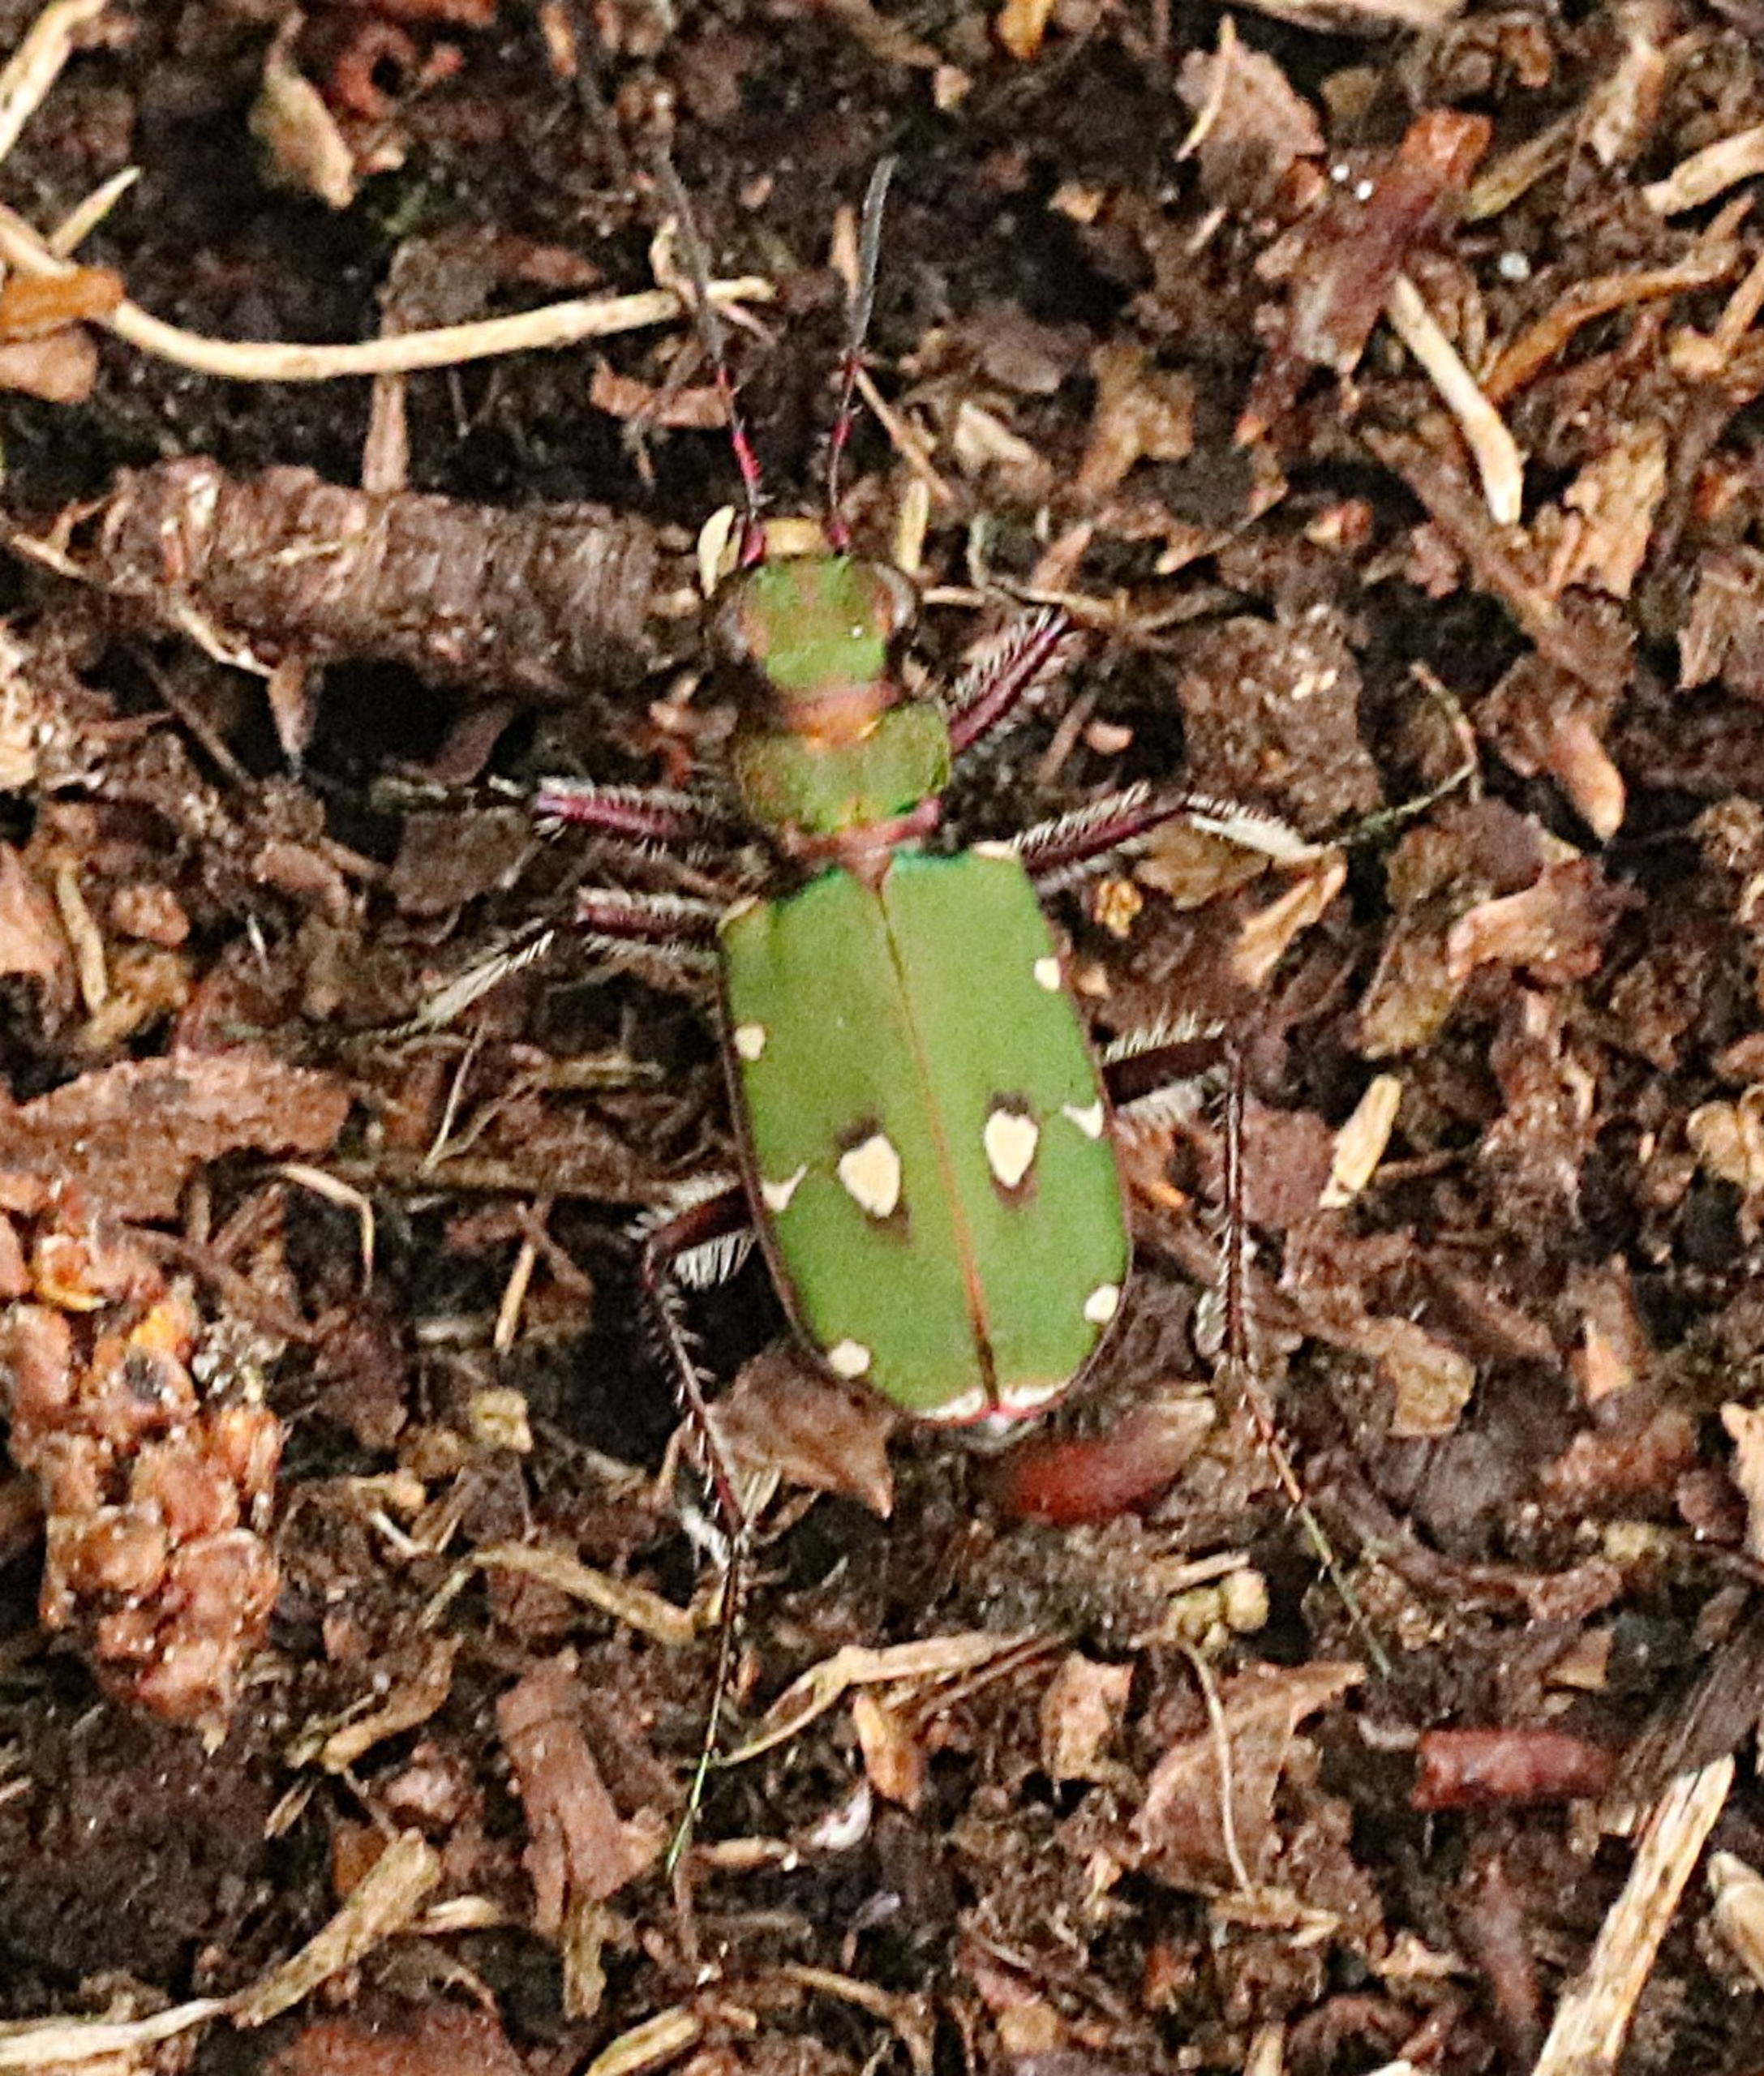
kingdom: Animalia
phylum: Arthropoda
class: Insecta
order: Coleoptera
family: Carabidae
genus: Cicindela
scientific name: Cicindela campestris
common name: Grøn sandspringer
